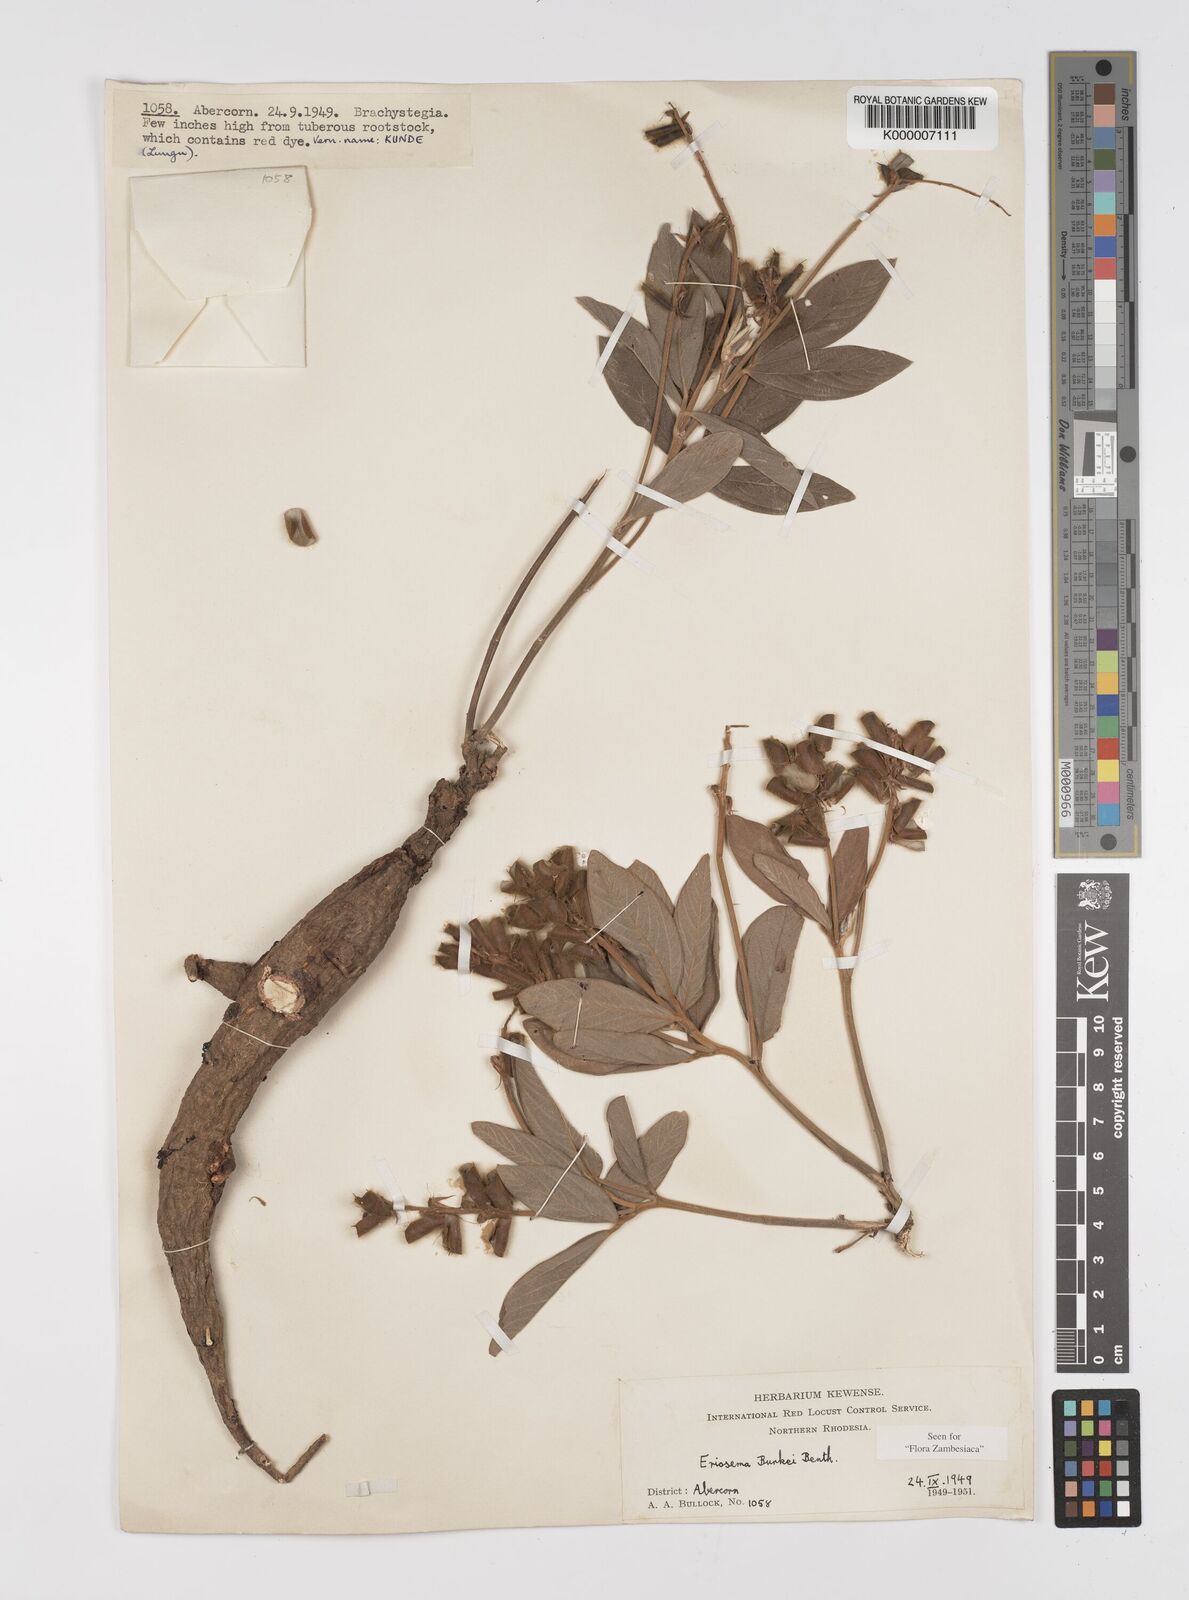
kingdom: Plantae
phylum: Tracheophyta
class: Magnoliopsida
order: Fabales
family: Fabaceae
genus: Eriosema
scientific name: Eriosema burkei
